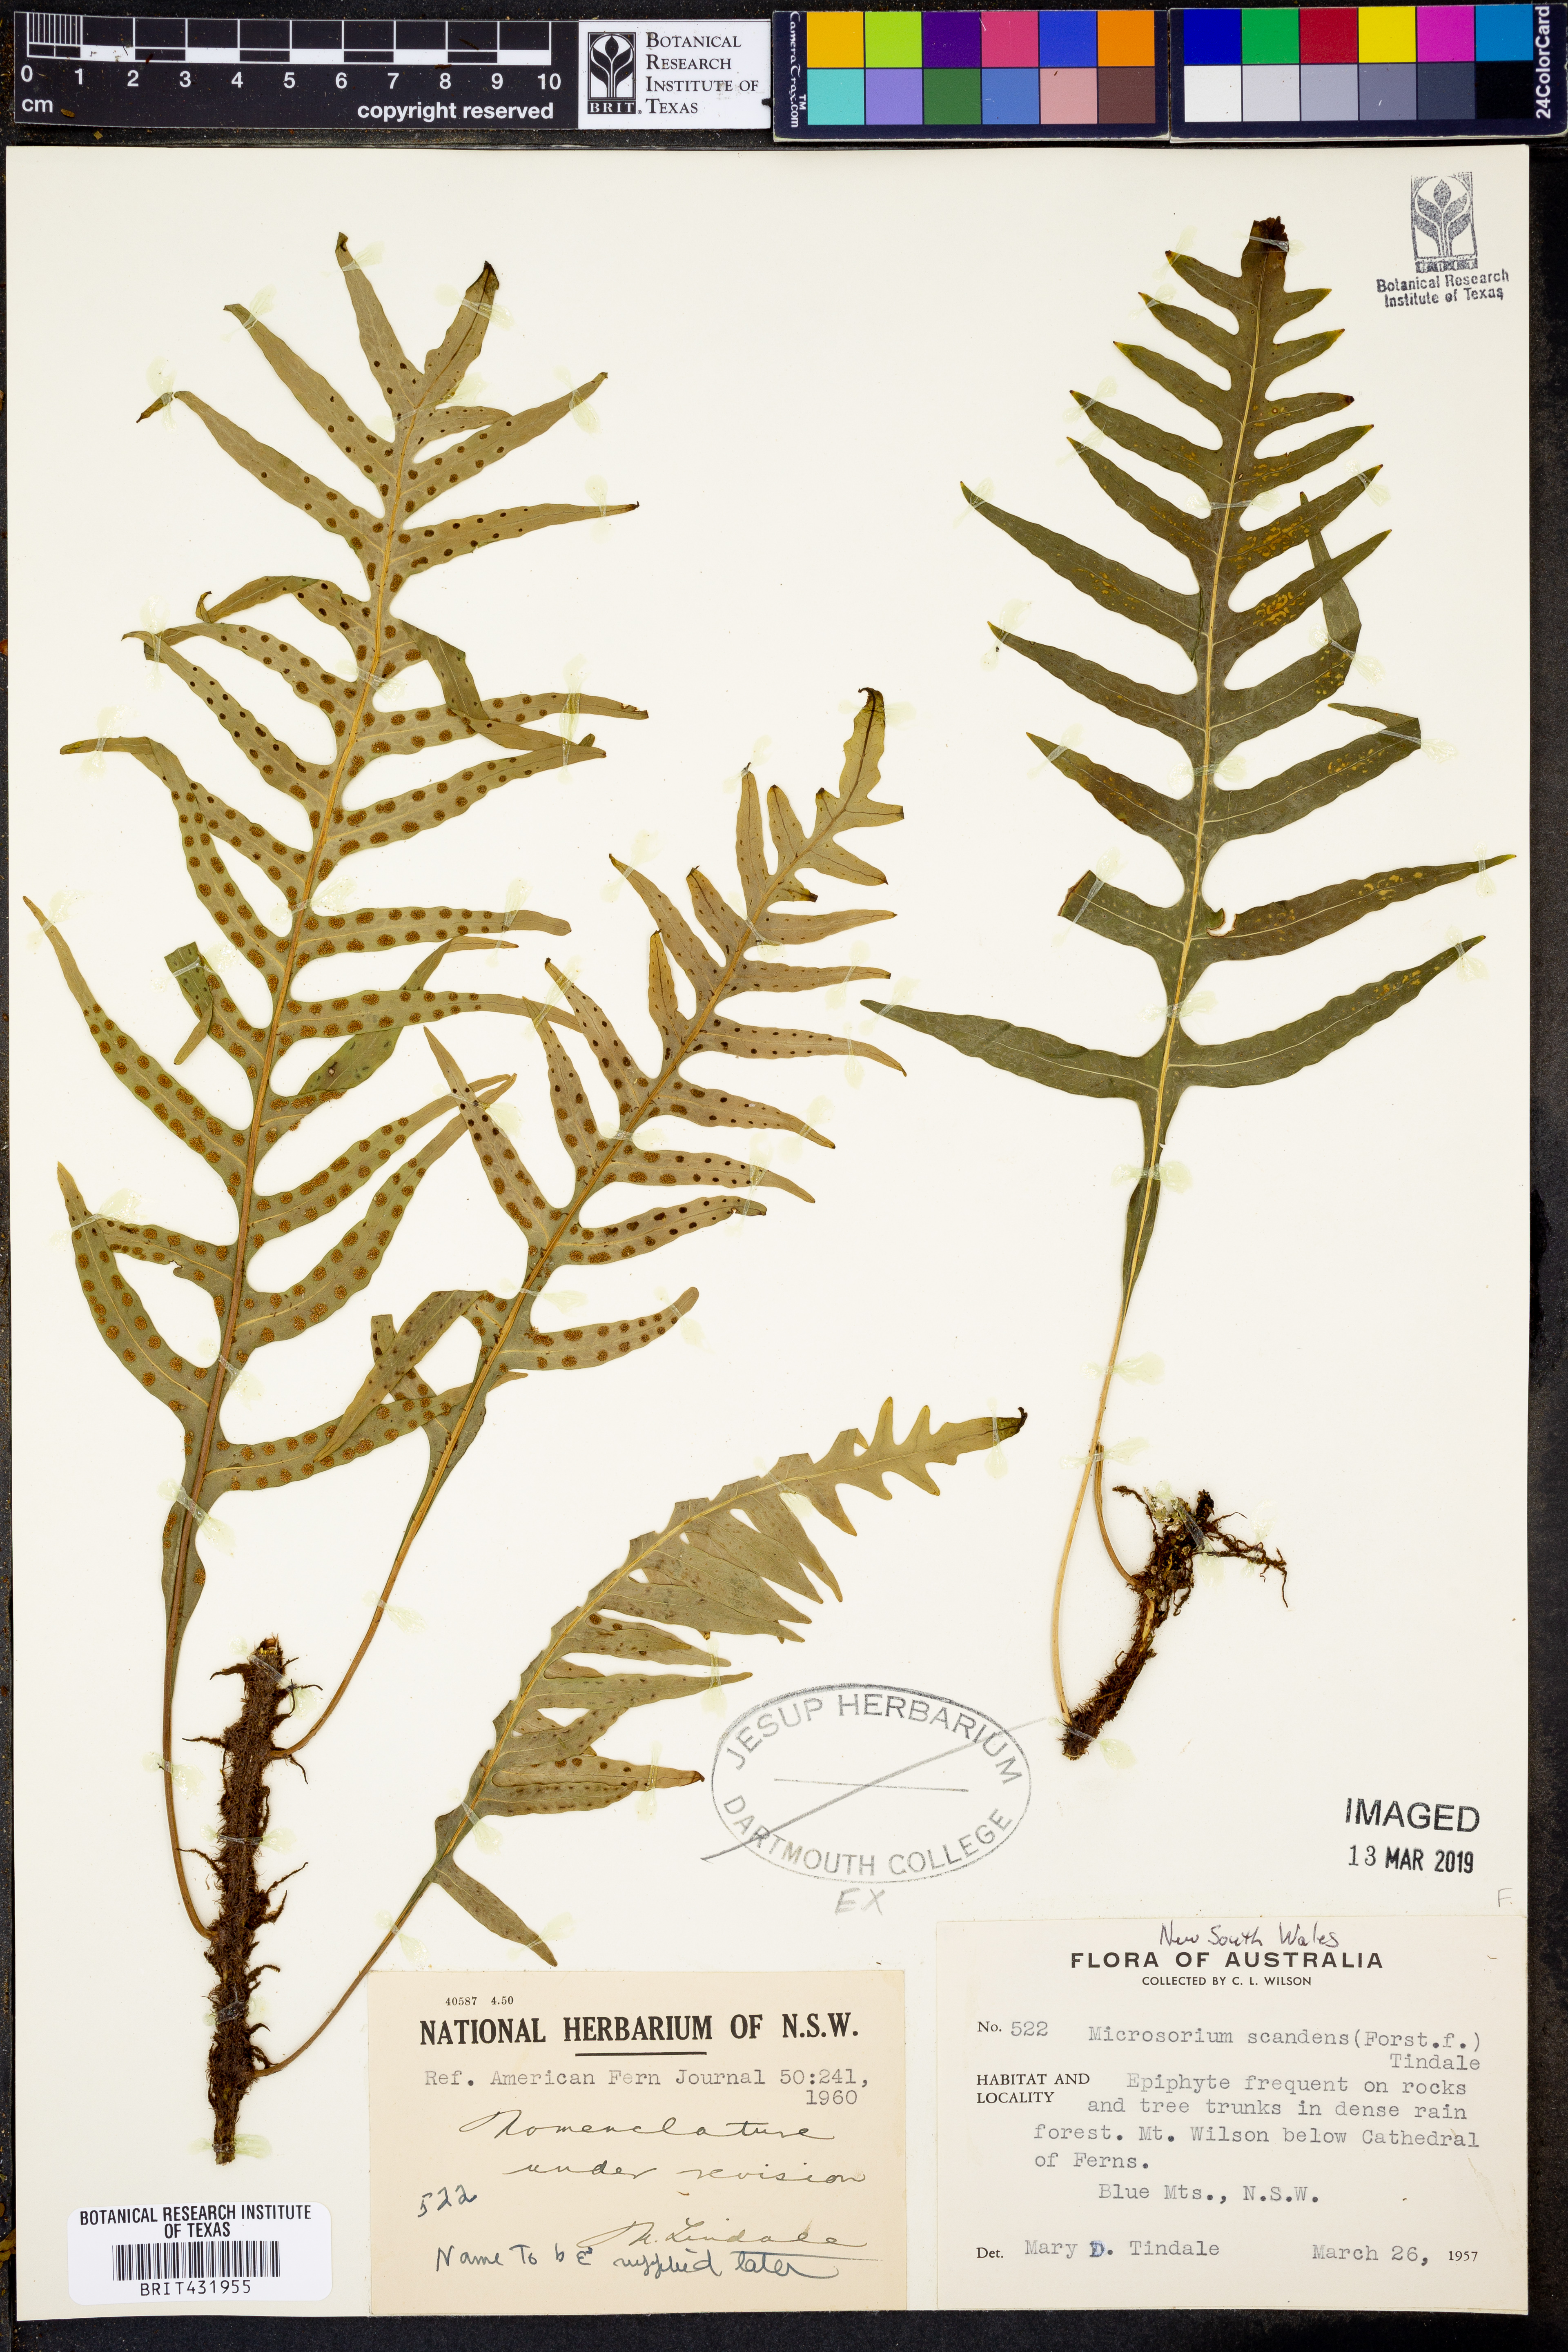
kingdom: Plantae
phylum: Tracheophyta
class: Polypodiopsida
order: Polypodiales
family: Polypodiaceae
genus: Lecanopteris
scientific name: Lecanopteris scandens
